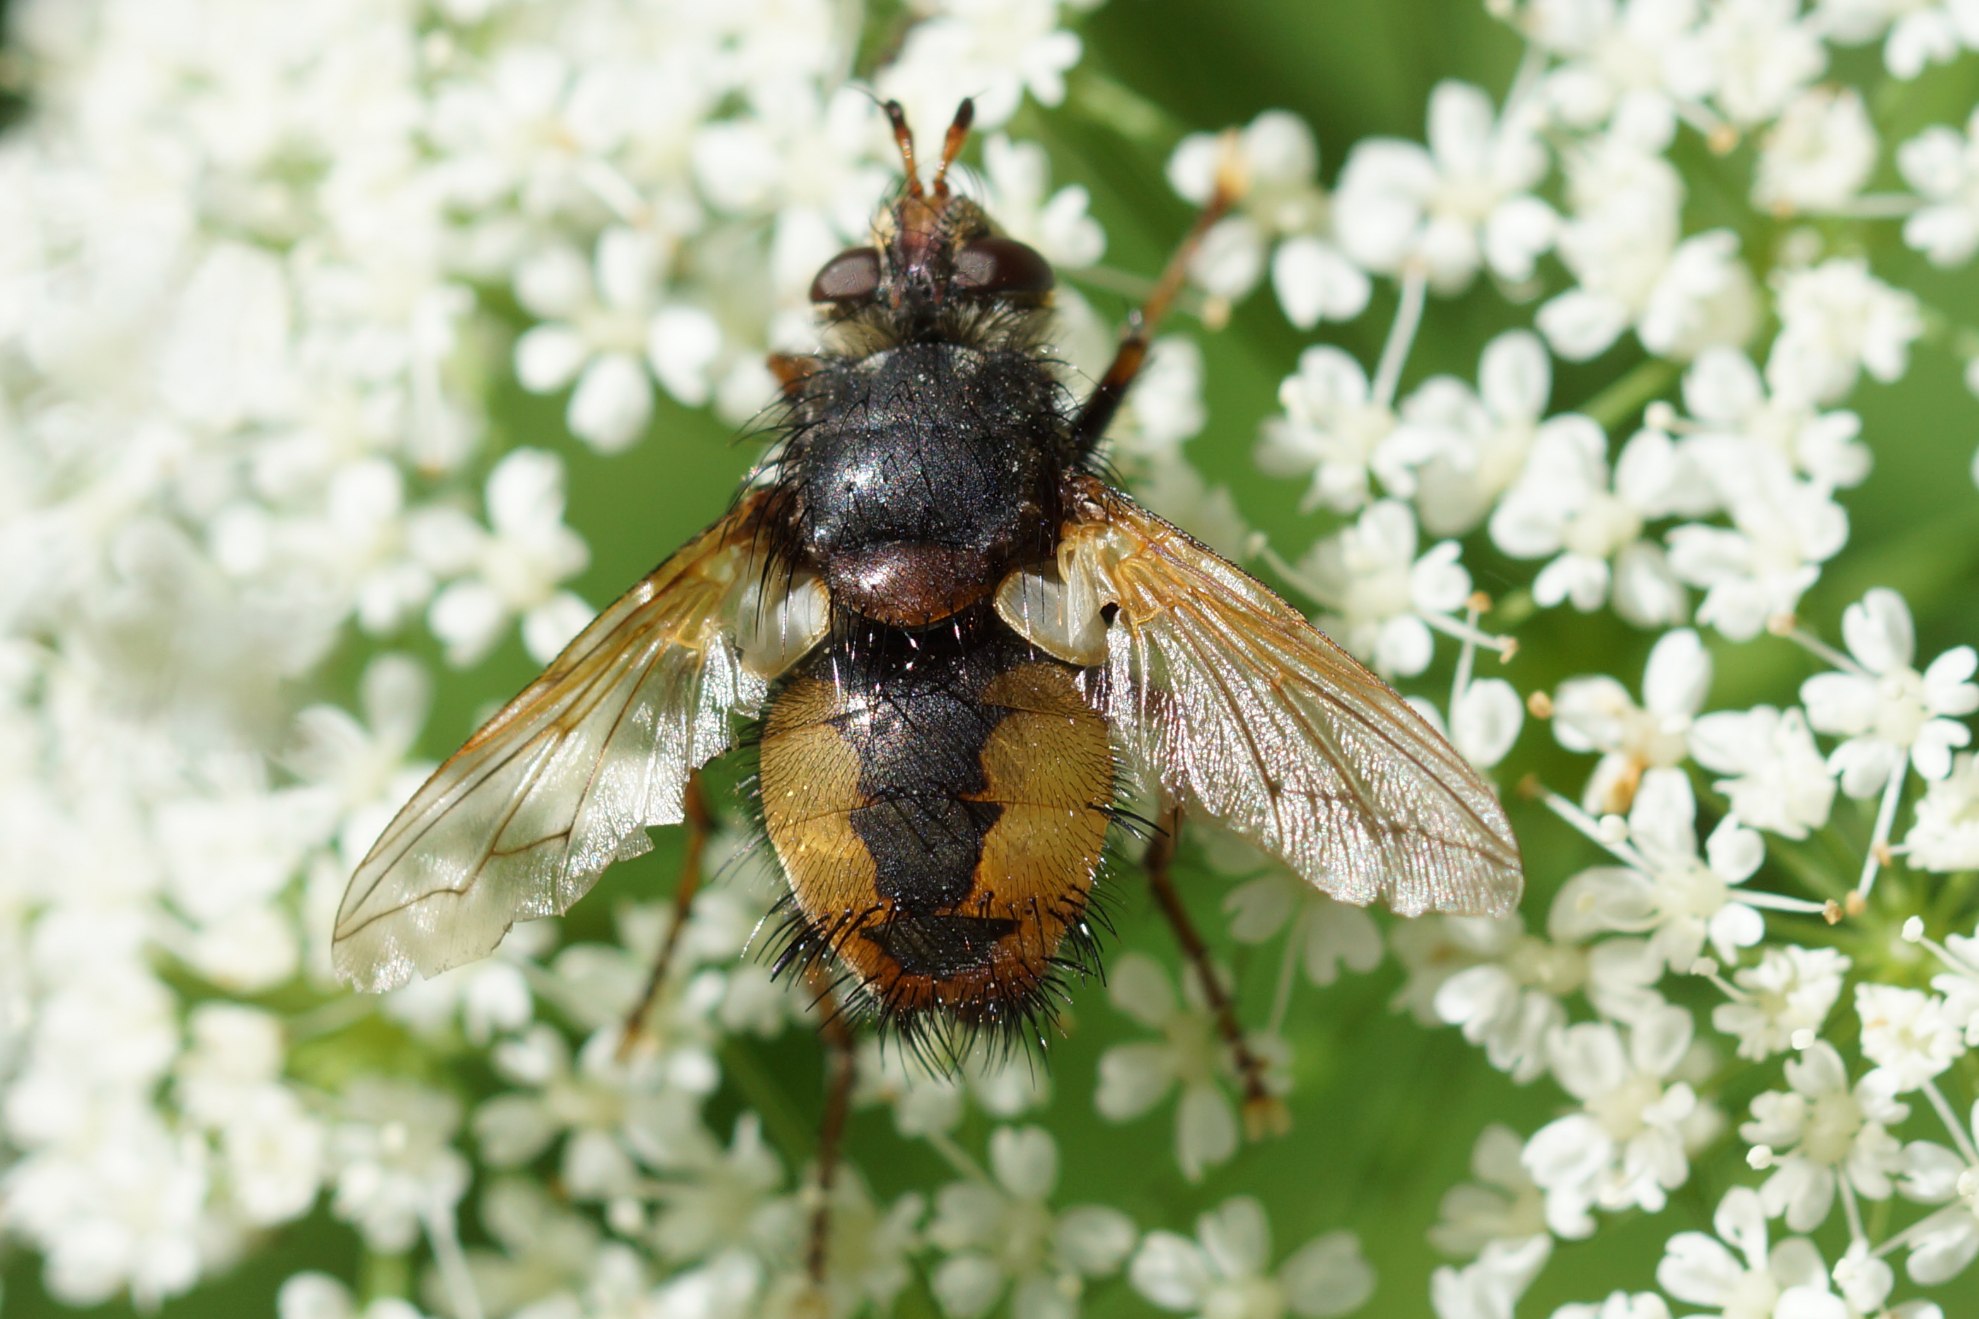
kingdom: Animalia
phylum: Arthropoda
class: Insecta
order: Diptera
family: Tachinidae
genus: Tachina
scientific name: Tachina fera
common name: Mellemfluen oskar
